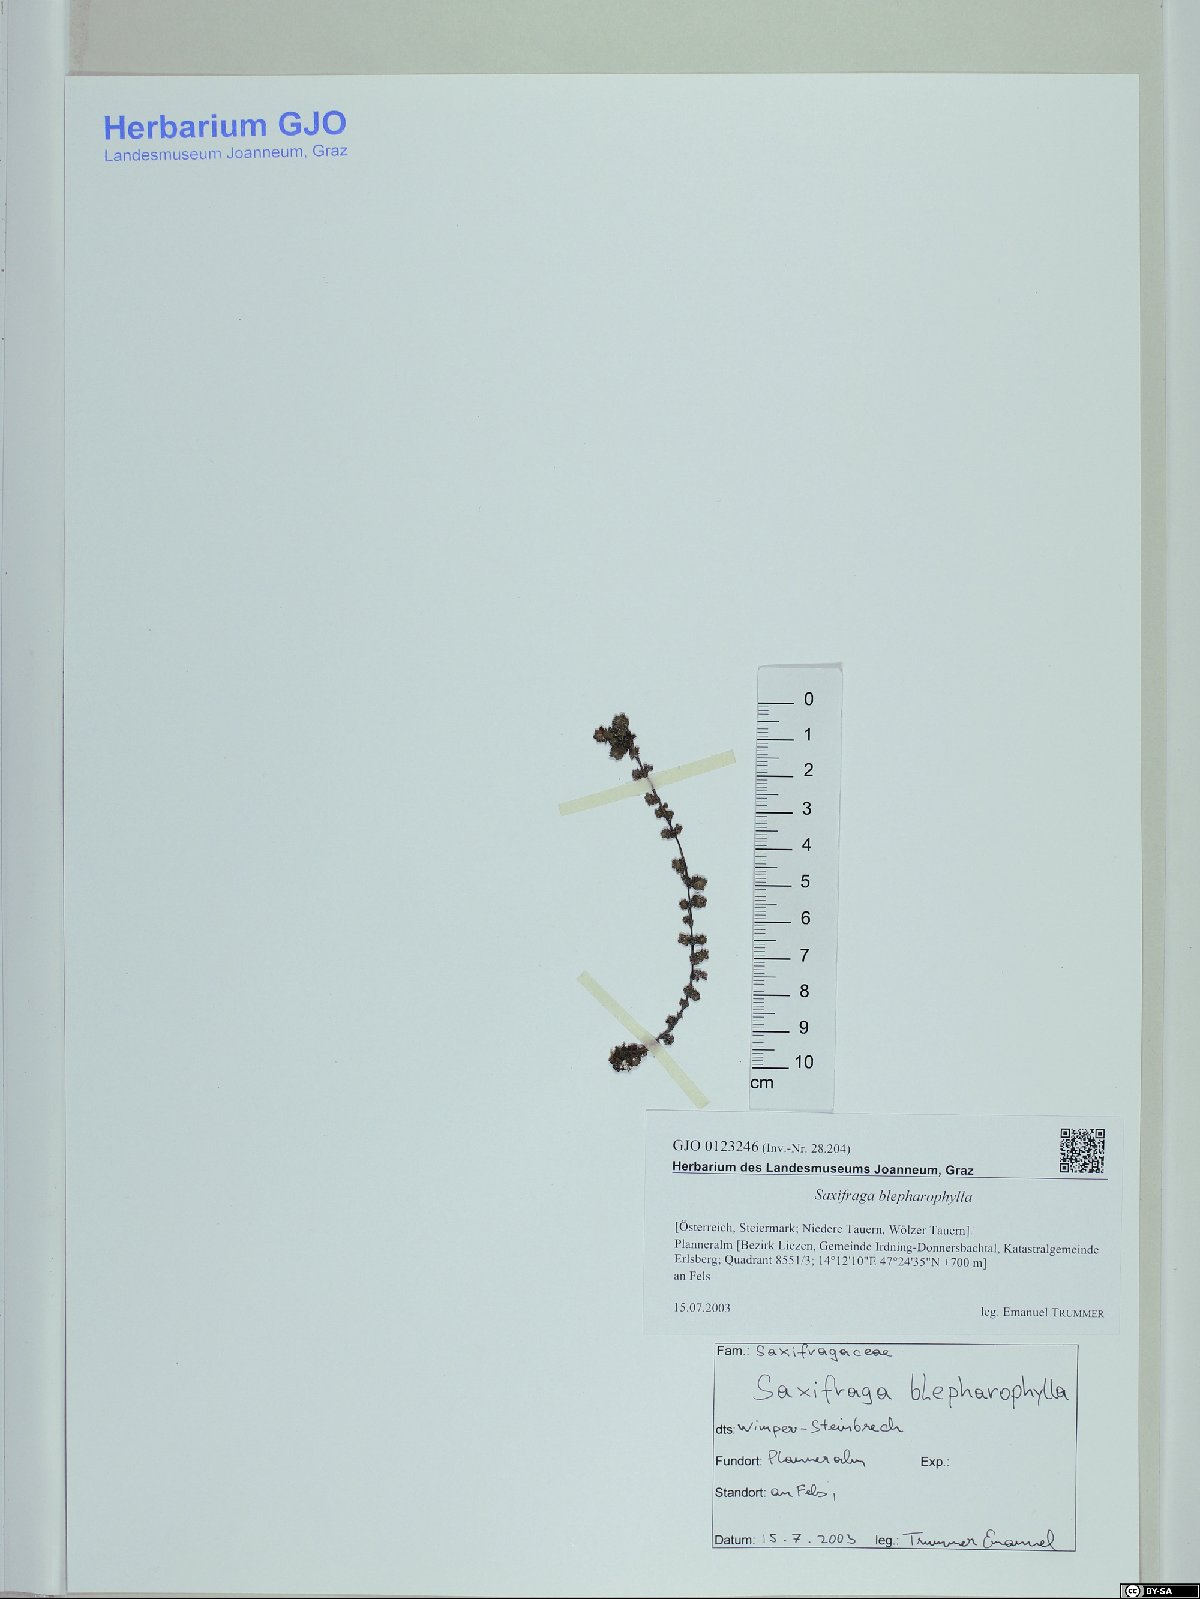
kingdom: Plantae
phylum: Tracheophyta
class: Magnoliopsida
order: Saxifragales
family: Saxifragaceae
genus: Saxifraga
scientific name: Saxifraga oppositifolia
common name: Purple saxifrage
